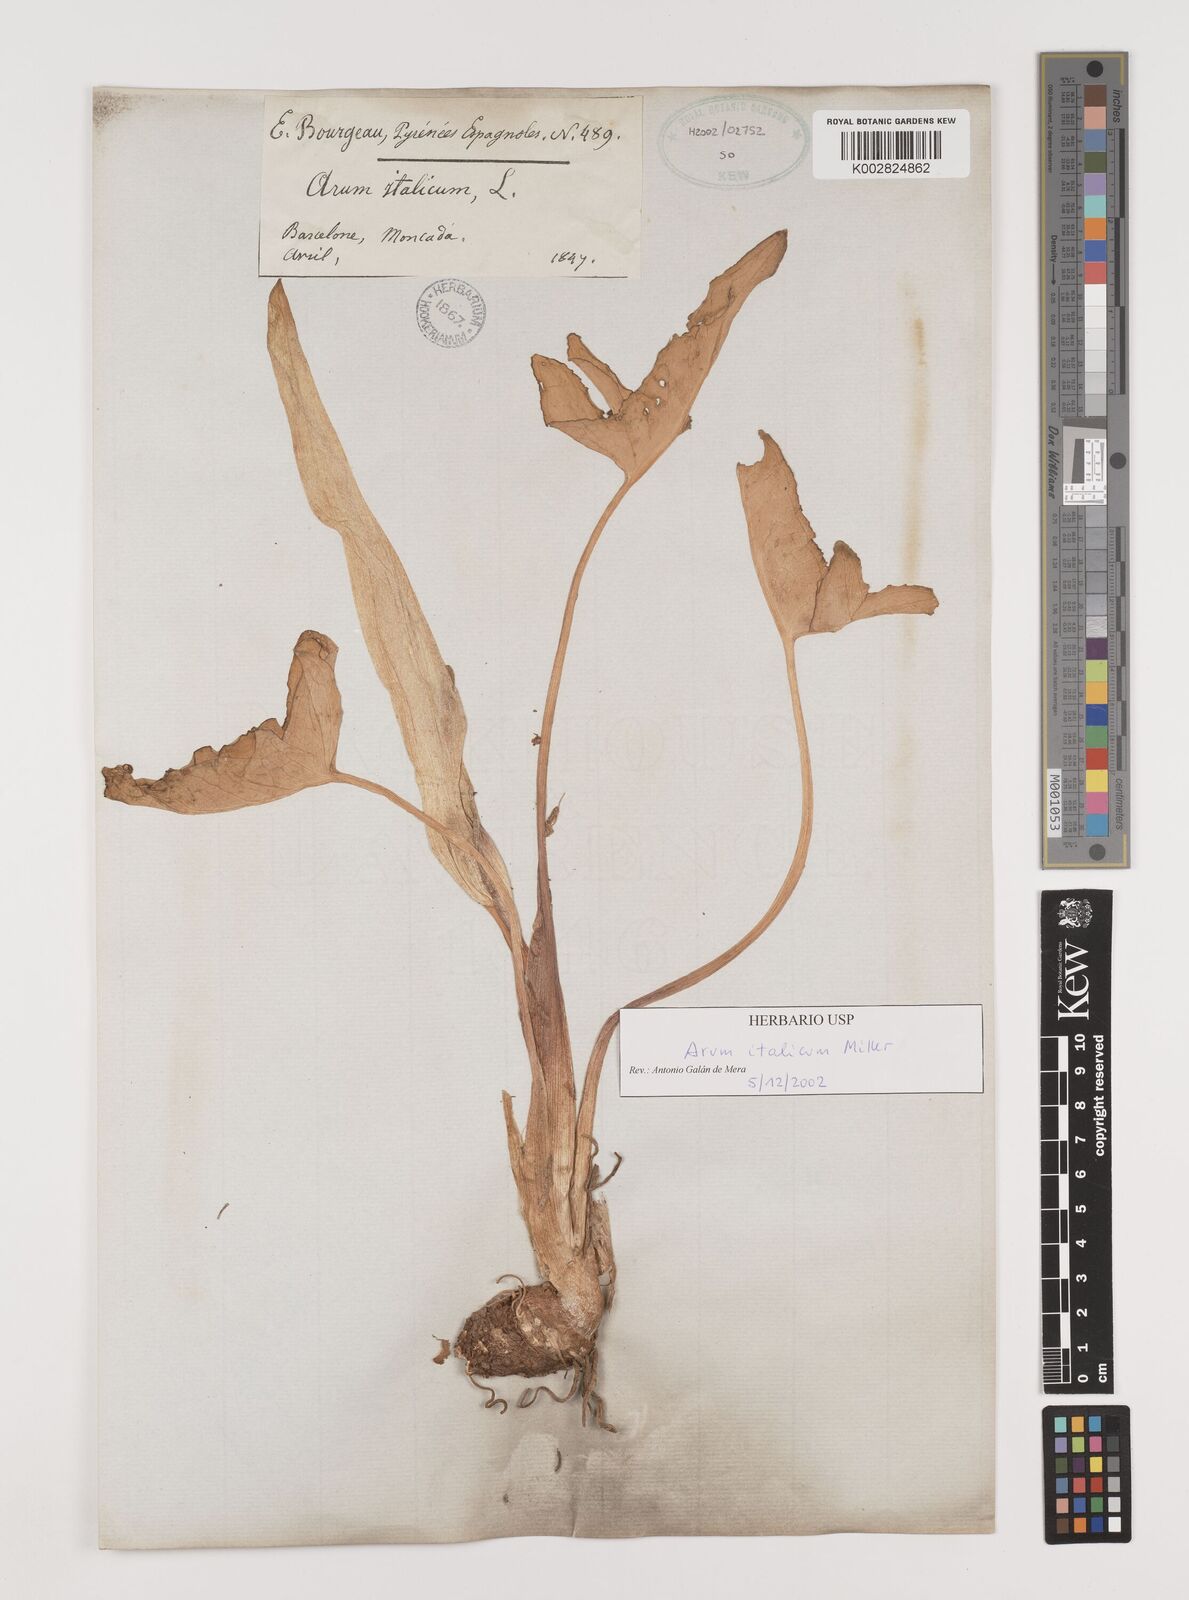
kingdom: Plantae
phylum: Tracheophyta
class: Liliopsida
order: Alismatales
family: Araceae
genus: Arum
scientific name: Arum italicum
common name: Italian lords-and-ladies
